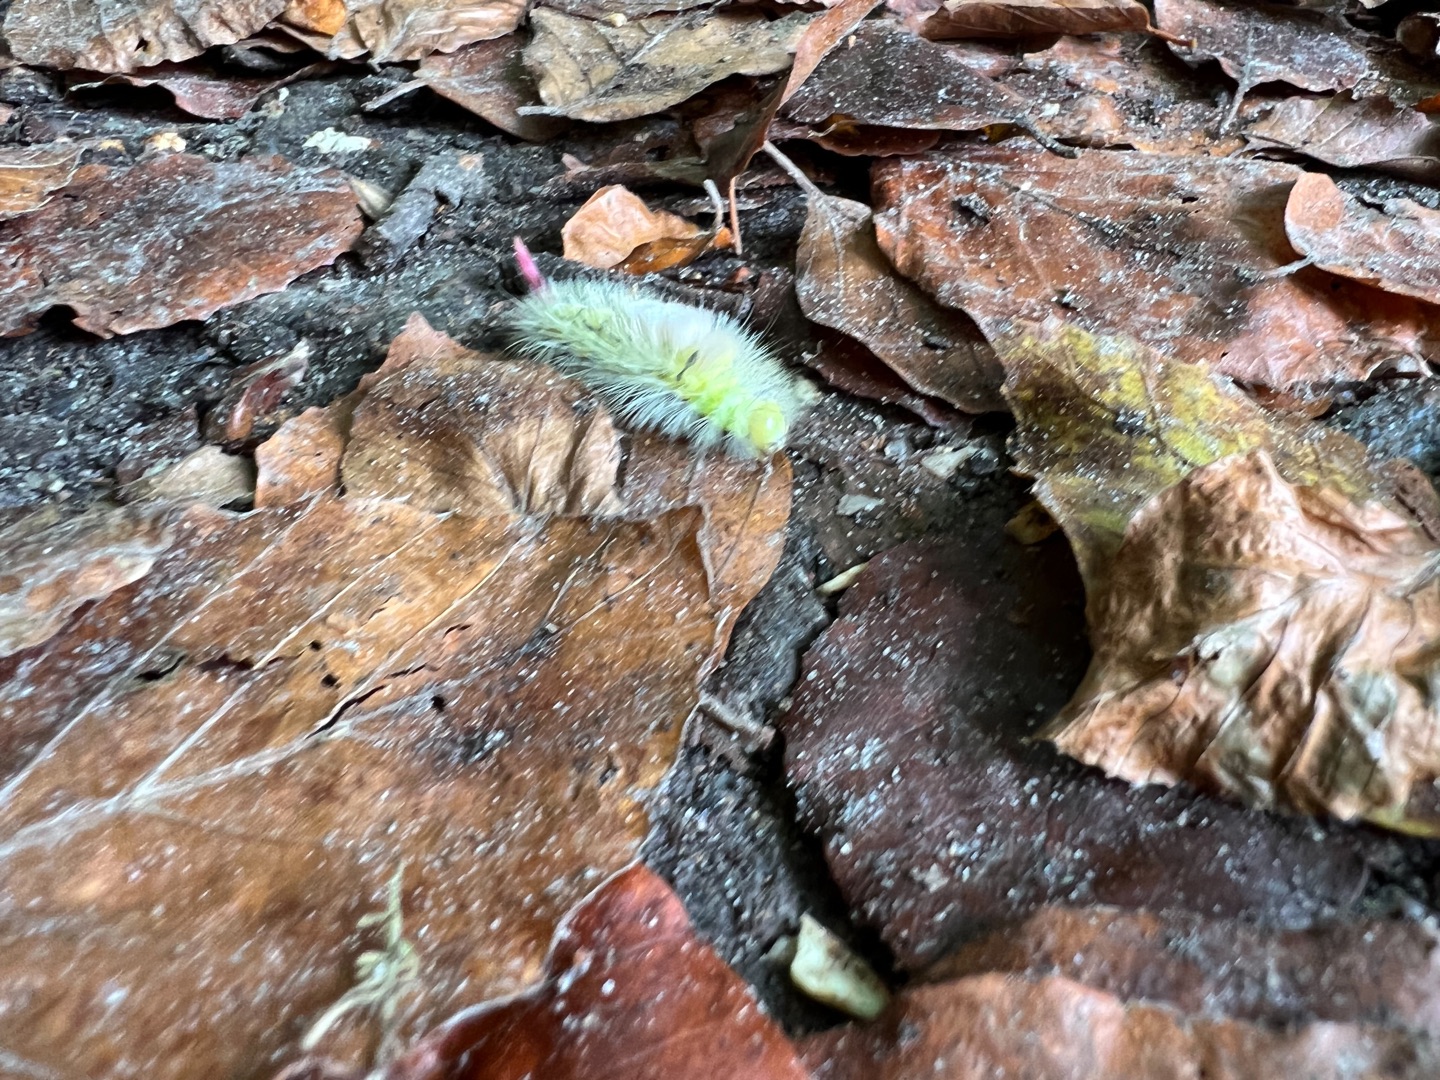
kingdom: Animalia
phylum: Arthropoda
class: Insecta
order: Lepidoptera
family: Erebidae
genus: Calliteara
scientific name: Calliteara pudibunda
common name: Bøgenonne
